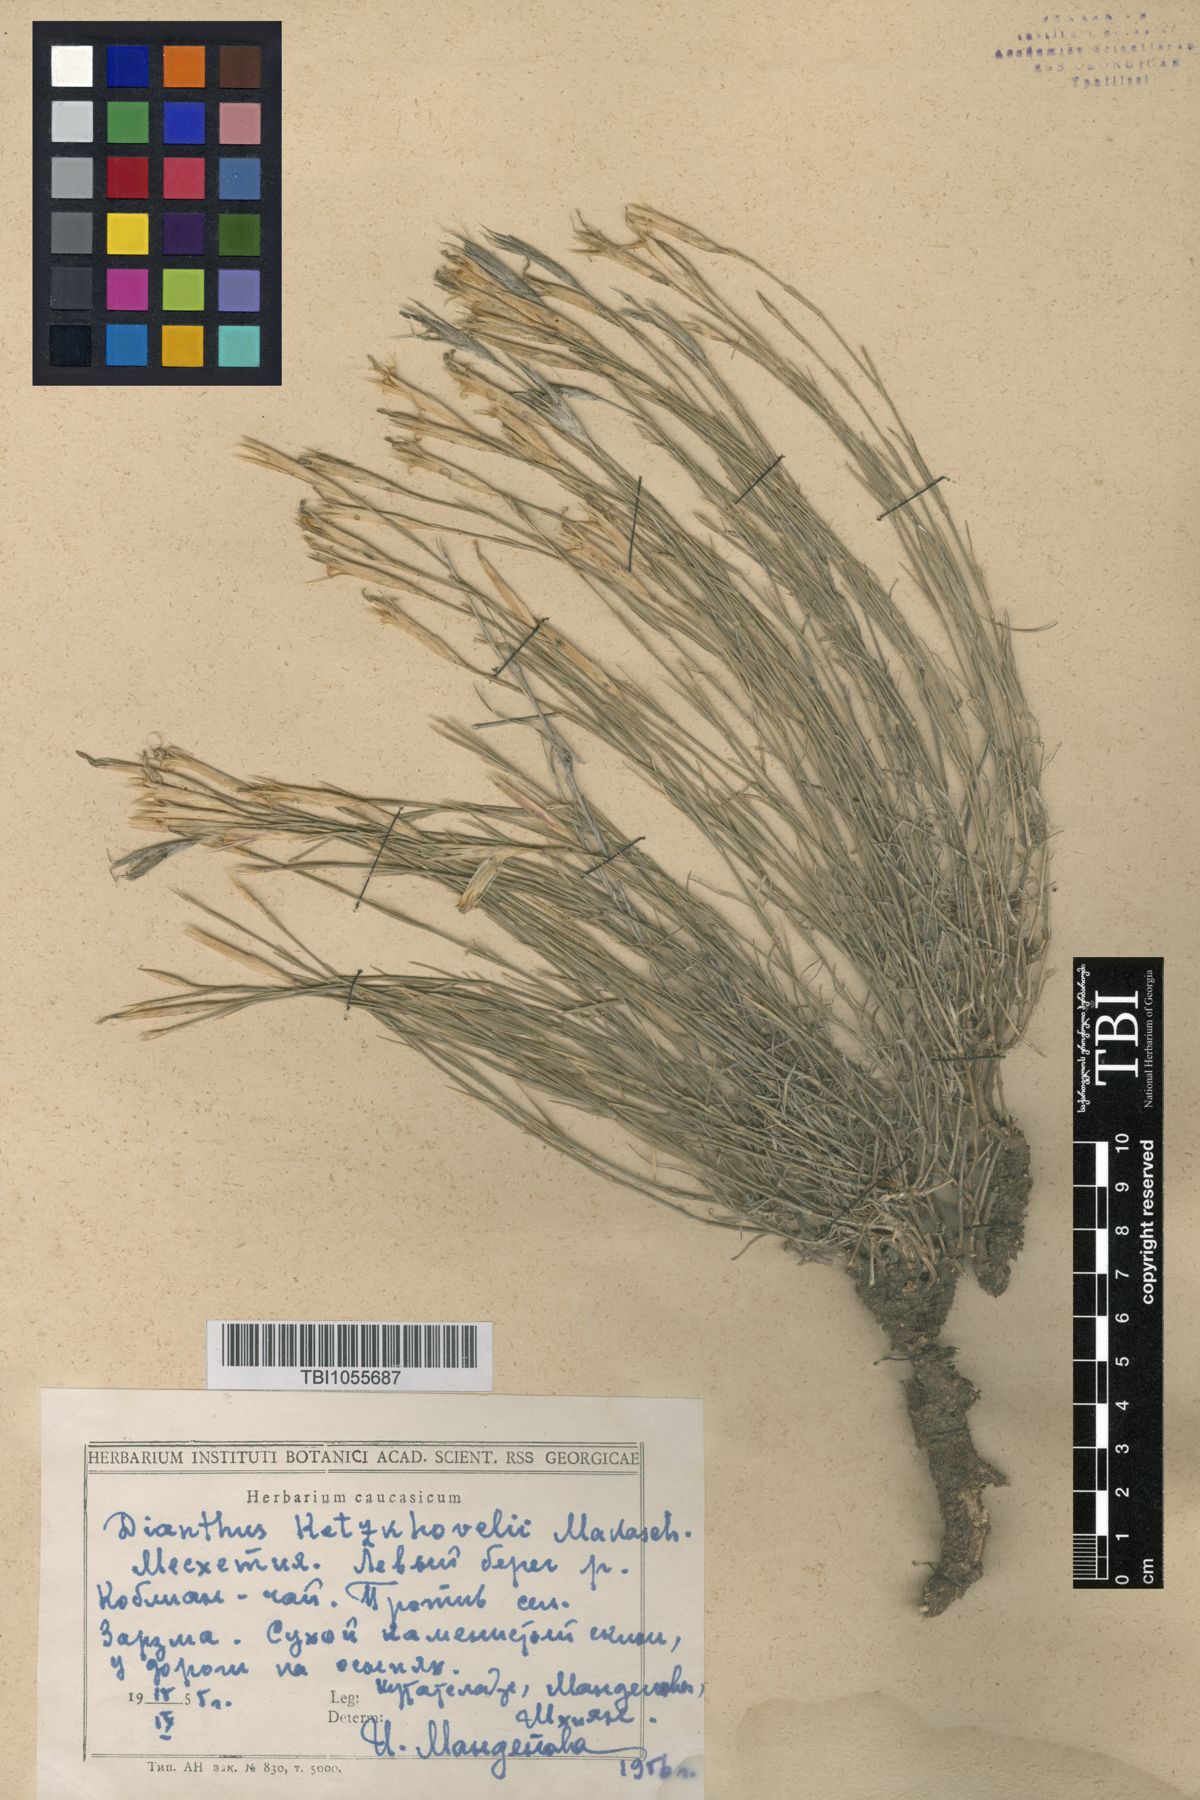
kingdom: Plantae
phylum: Tracheophyta
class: Magnoliopsida
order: Caryophyllales
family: Caryophyllaceae
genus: Dianthus
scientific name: Dianthus orientalis
